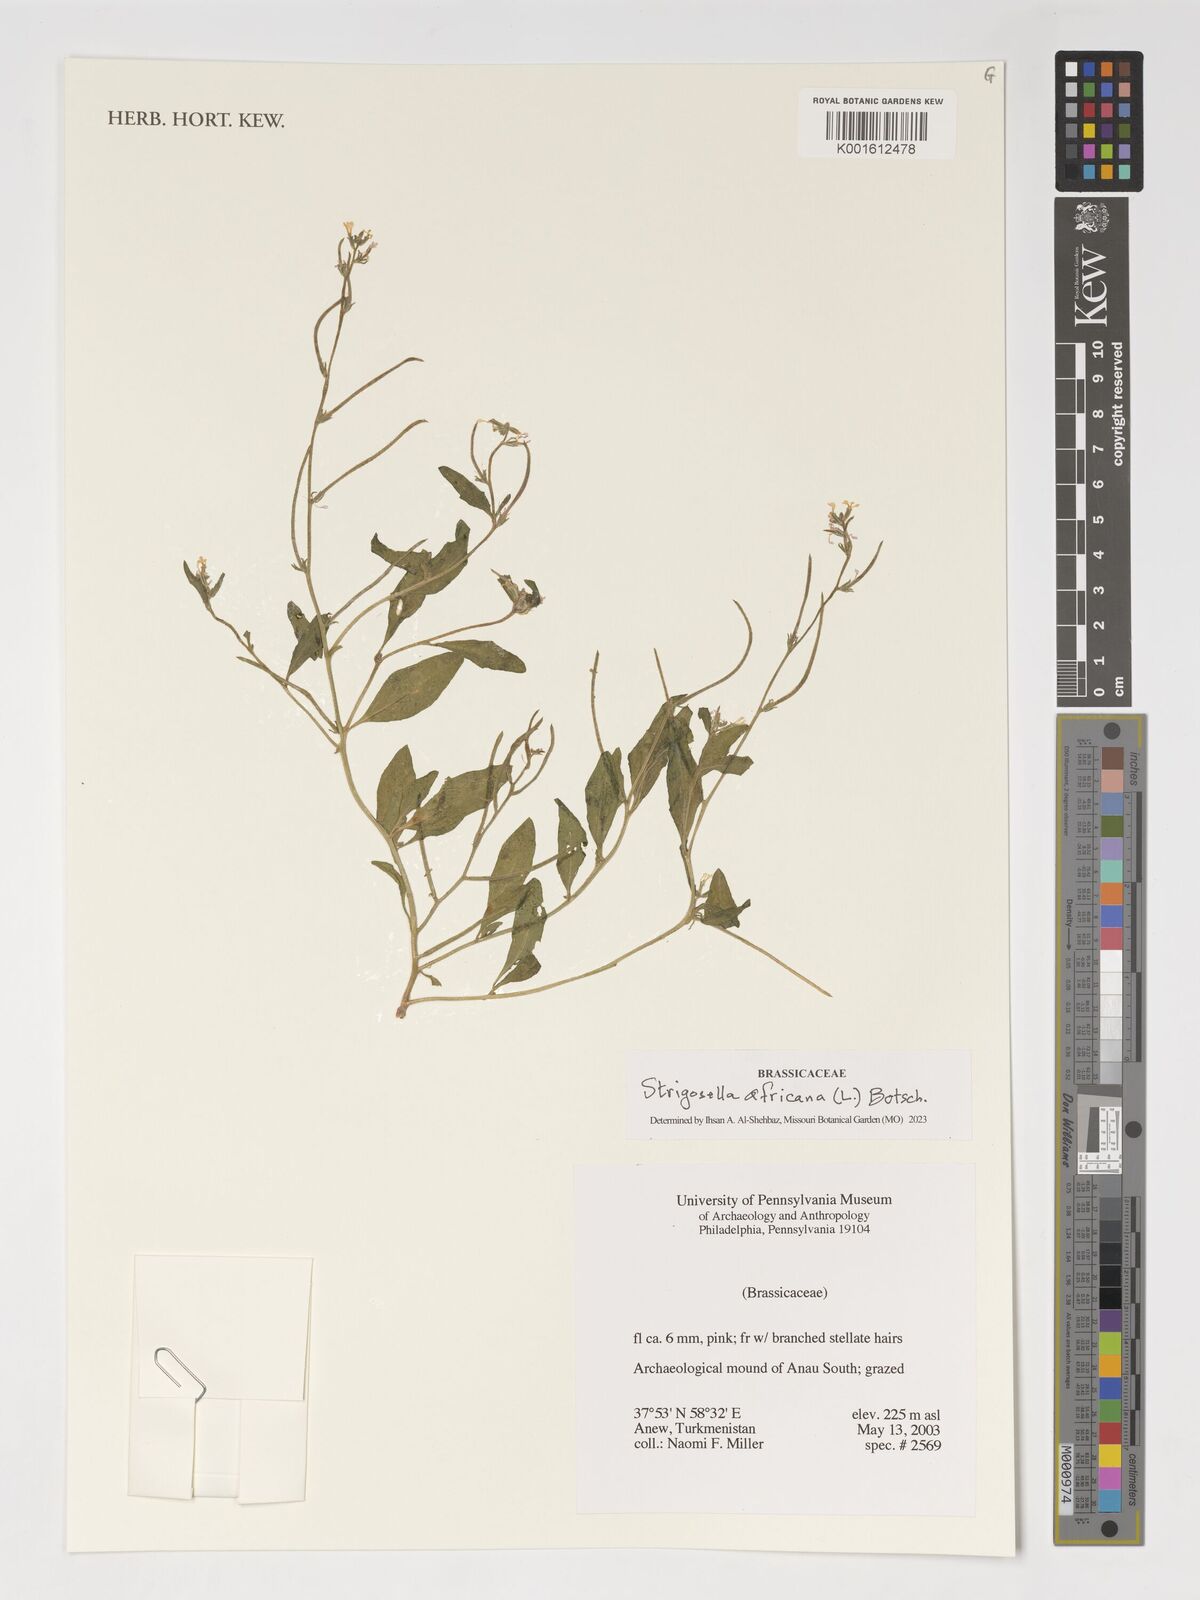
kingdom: Plantae
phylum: Tracheophyta
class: Magnoliopsida
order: Brassicales
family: Brassicaceae
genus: Strigosella
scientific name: Strigosella africana
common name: African mustard
